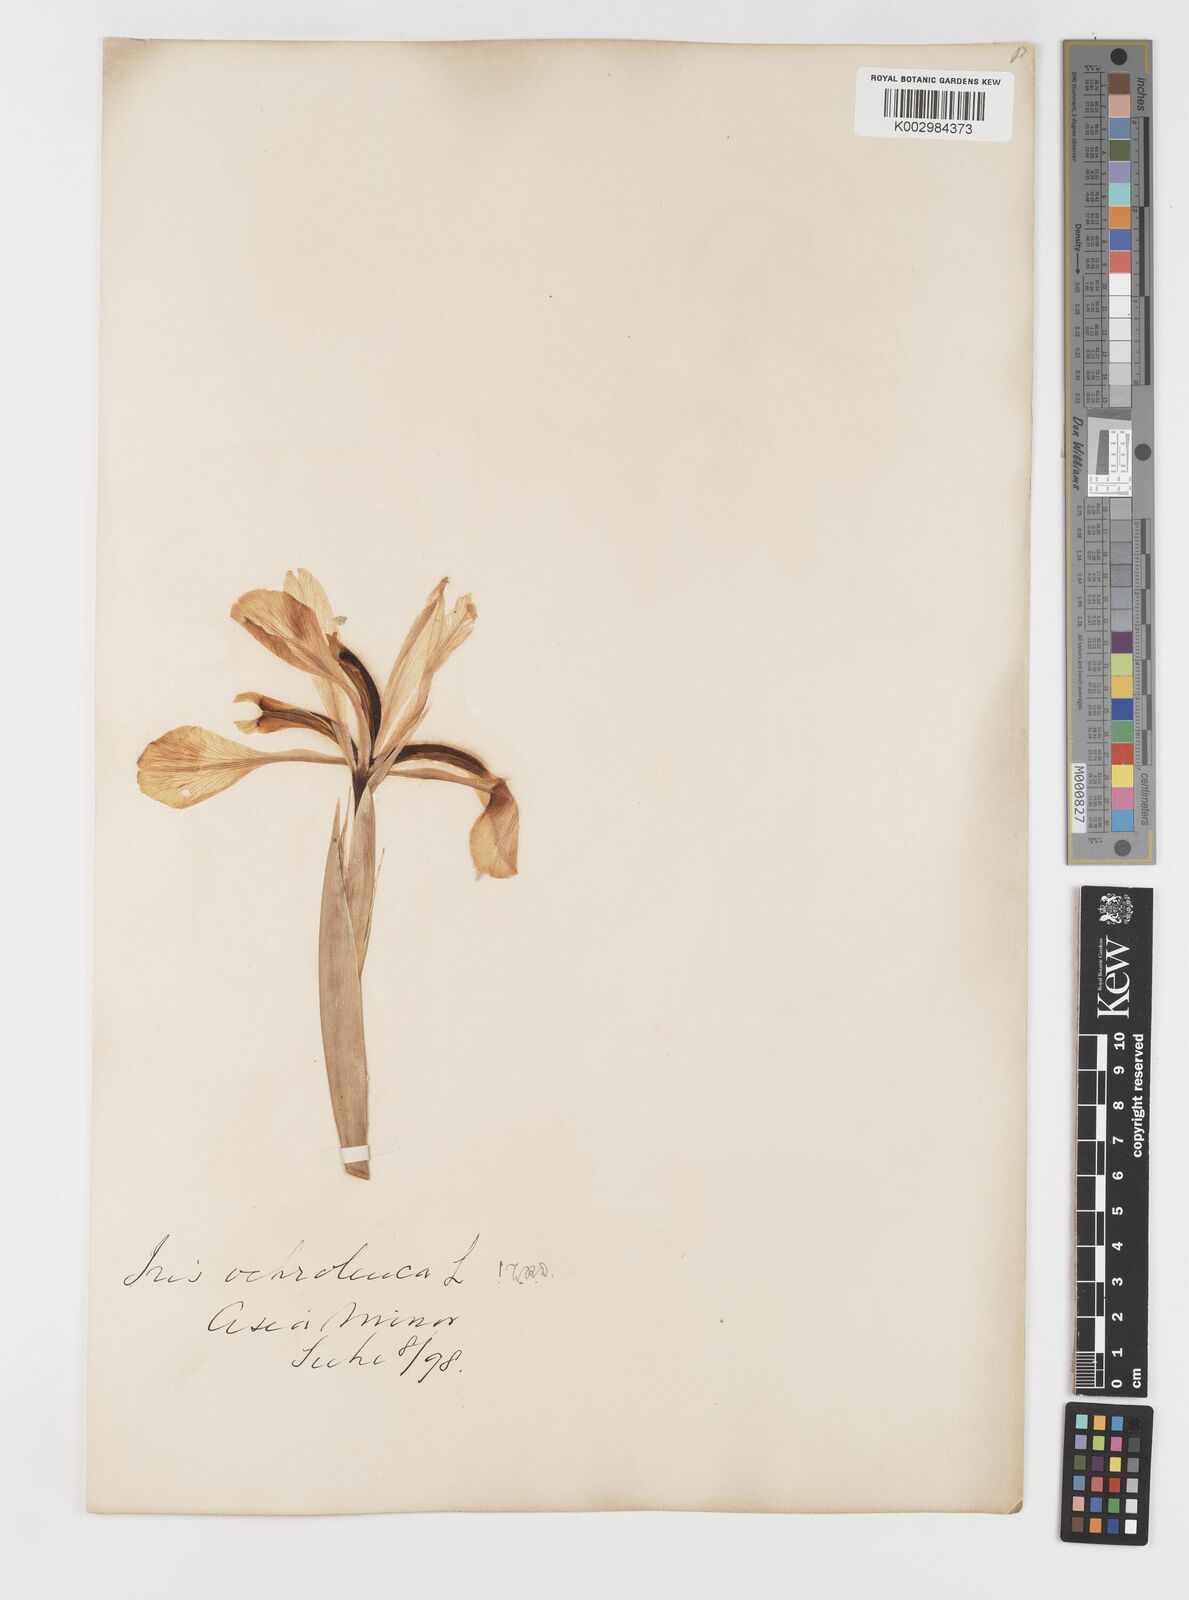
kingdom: Plantae
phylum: Tracheophyta
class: Liliopsida
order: Asparagales
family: Iridaceae
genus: Iris
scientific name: Iris orientalis
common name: Turkish iris
